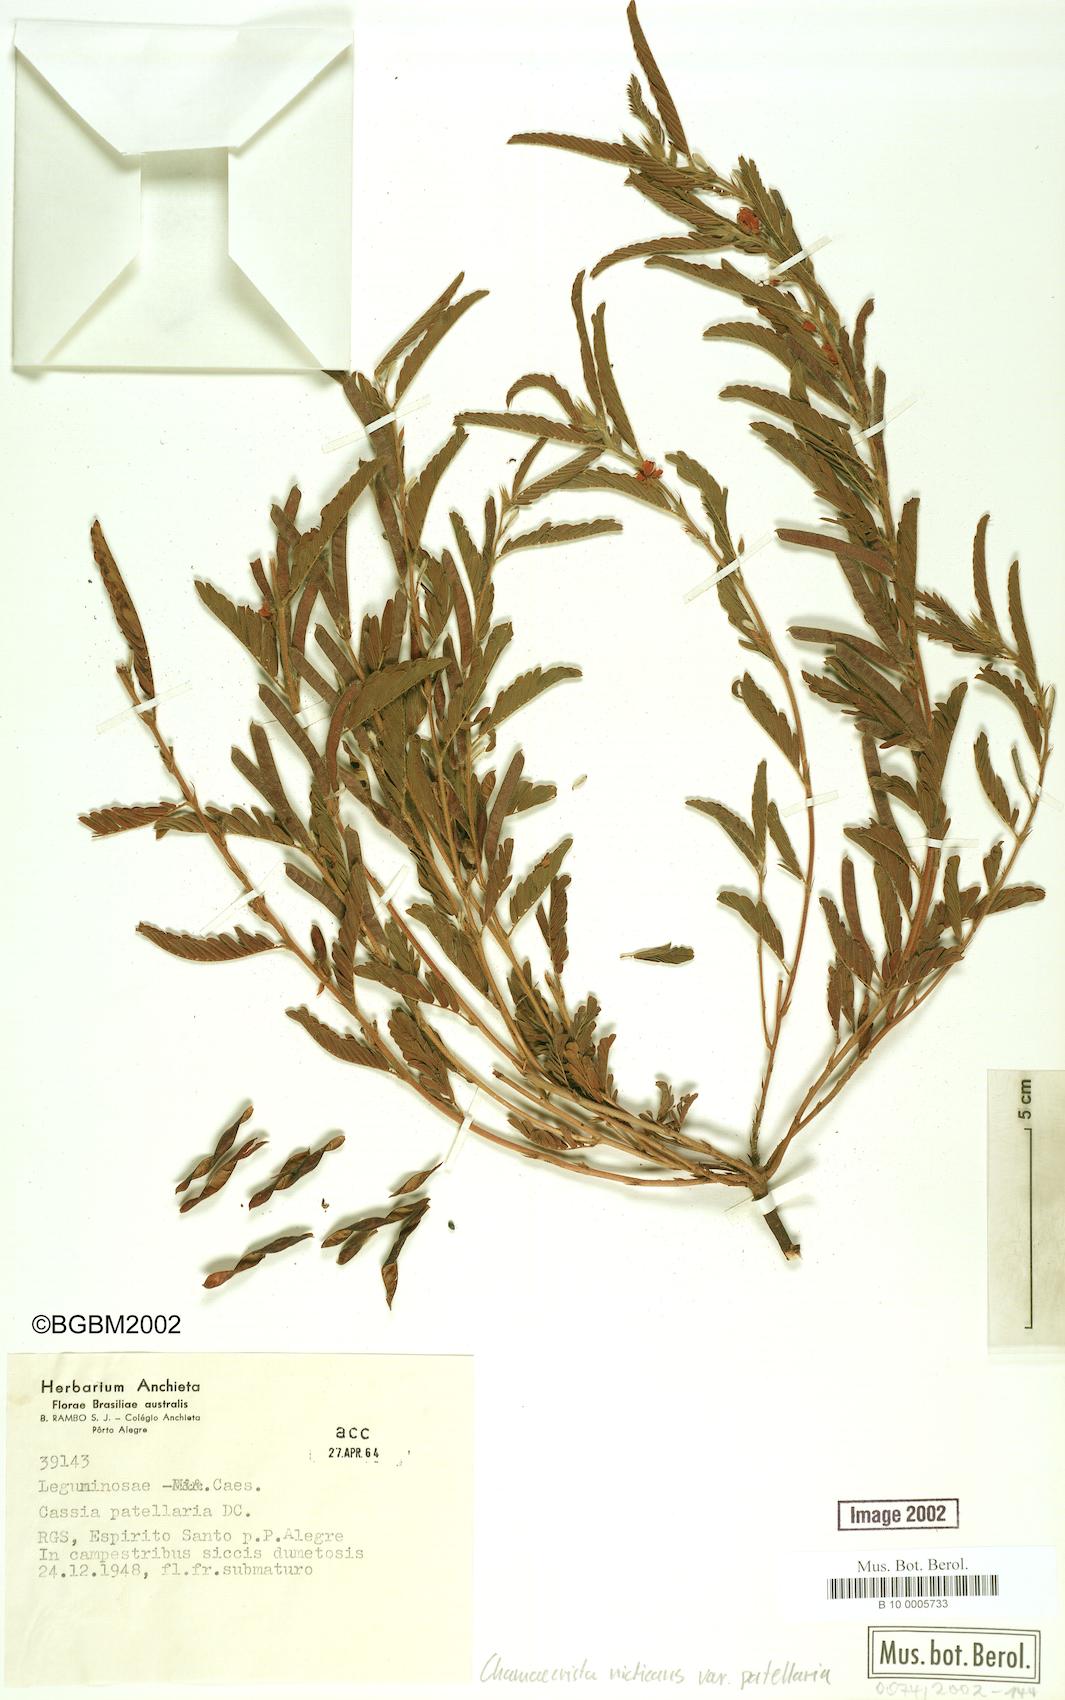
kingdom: Plantae
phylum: Tracheophyta
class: Magnoliopsida
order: Fabales
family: Fabaceae
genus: Chamaecrista
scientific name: Chamaecrista nictitans
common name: Sensitive cassia
